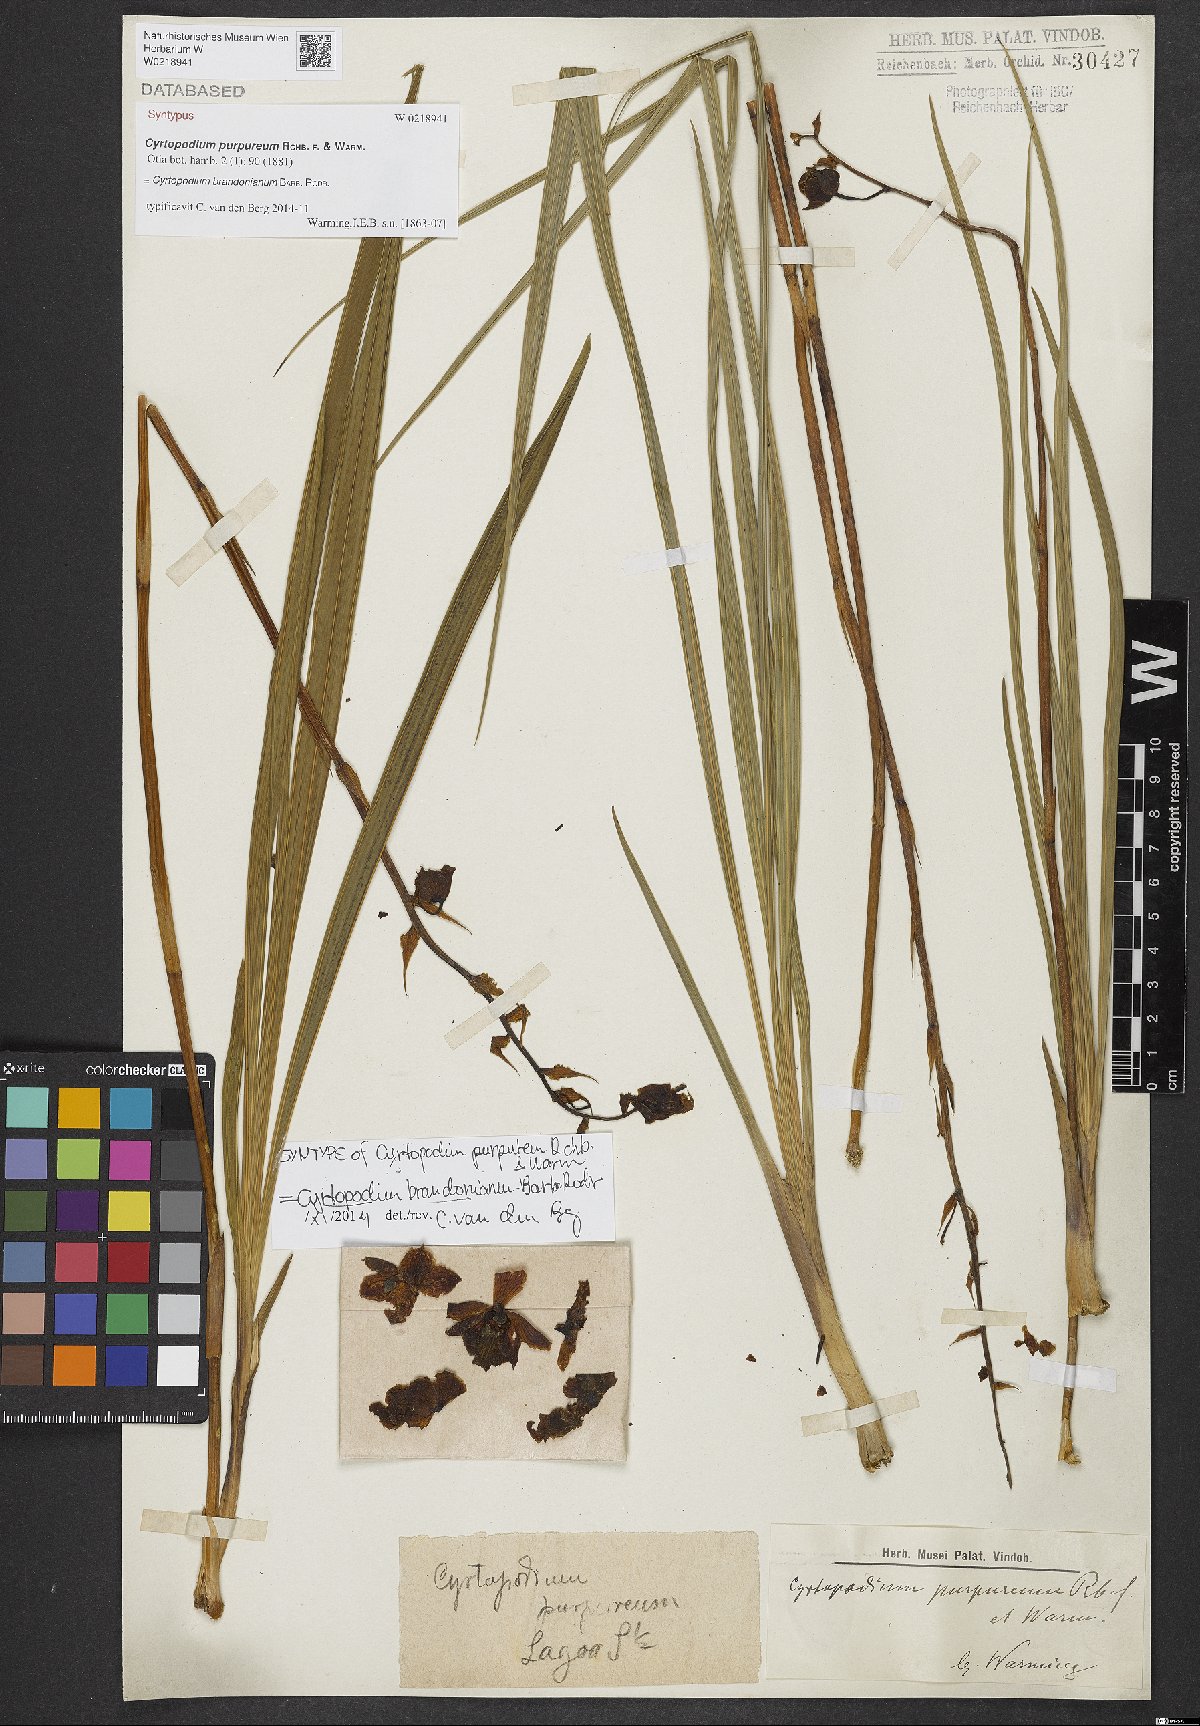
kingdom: Plantae
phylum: Tracheophyta
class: Liliopsida
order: Asparagales
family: Orchidaceae
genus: Cyrtopodium
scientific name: Cyrtopodium brandonianum
